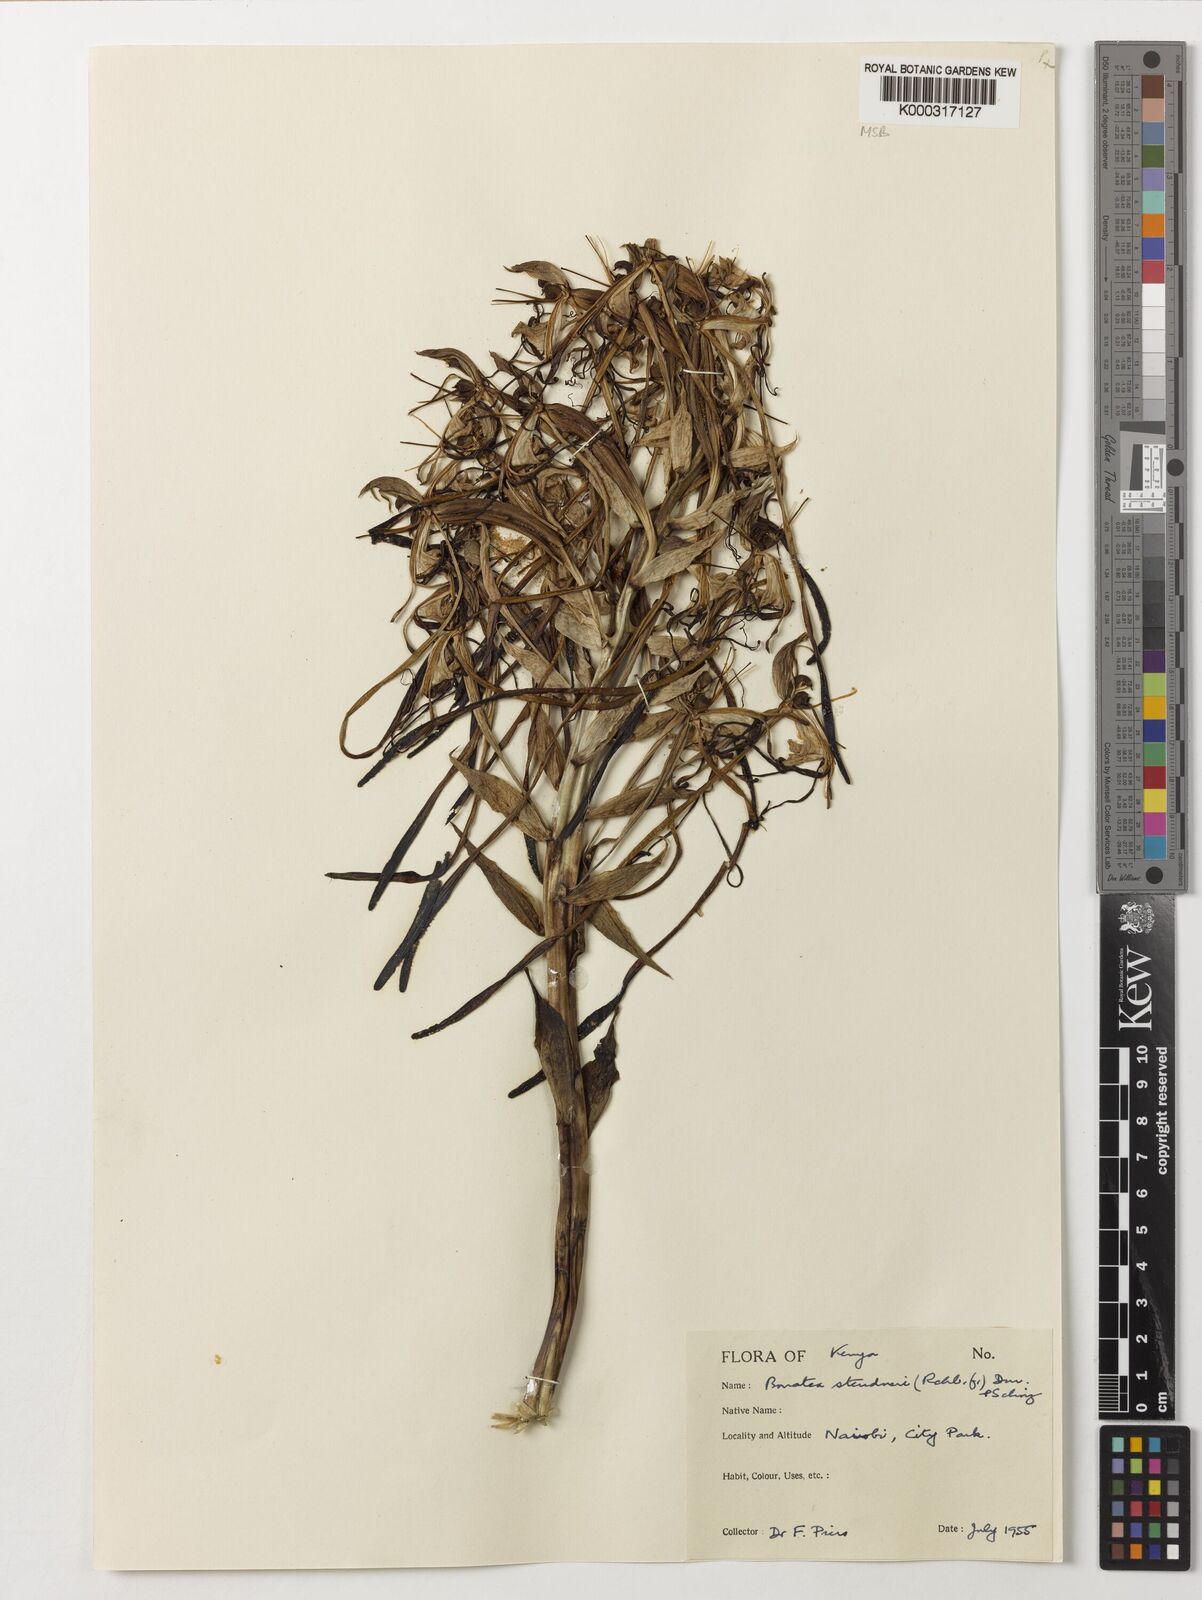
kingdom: Plantae
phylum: Tracheophyta
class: Liliopsida
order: Asparagales
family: Orchidaceae
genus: Bonatea
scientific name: Bonatea steudneri
